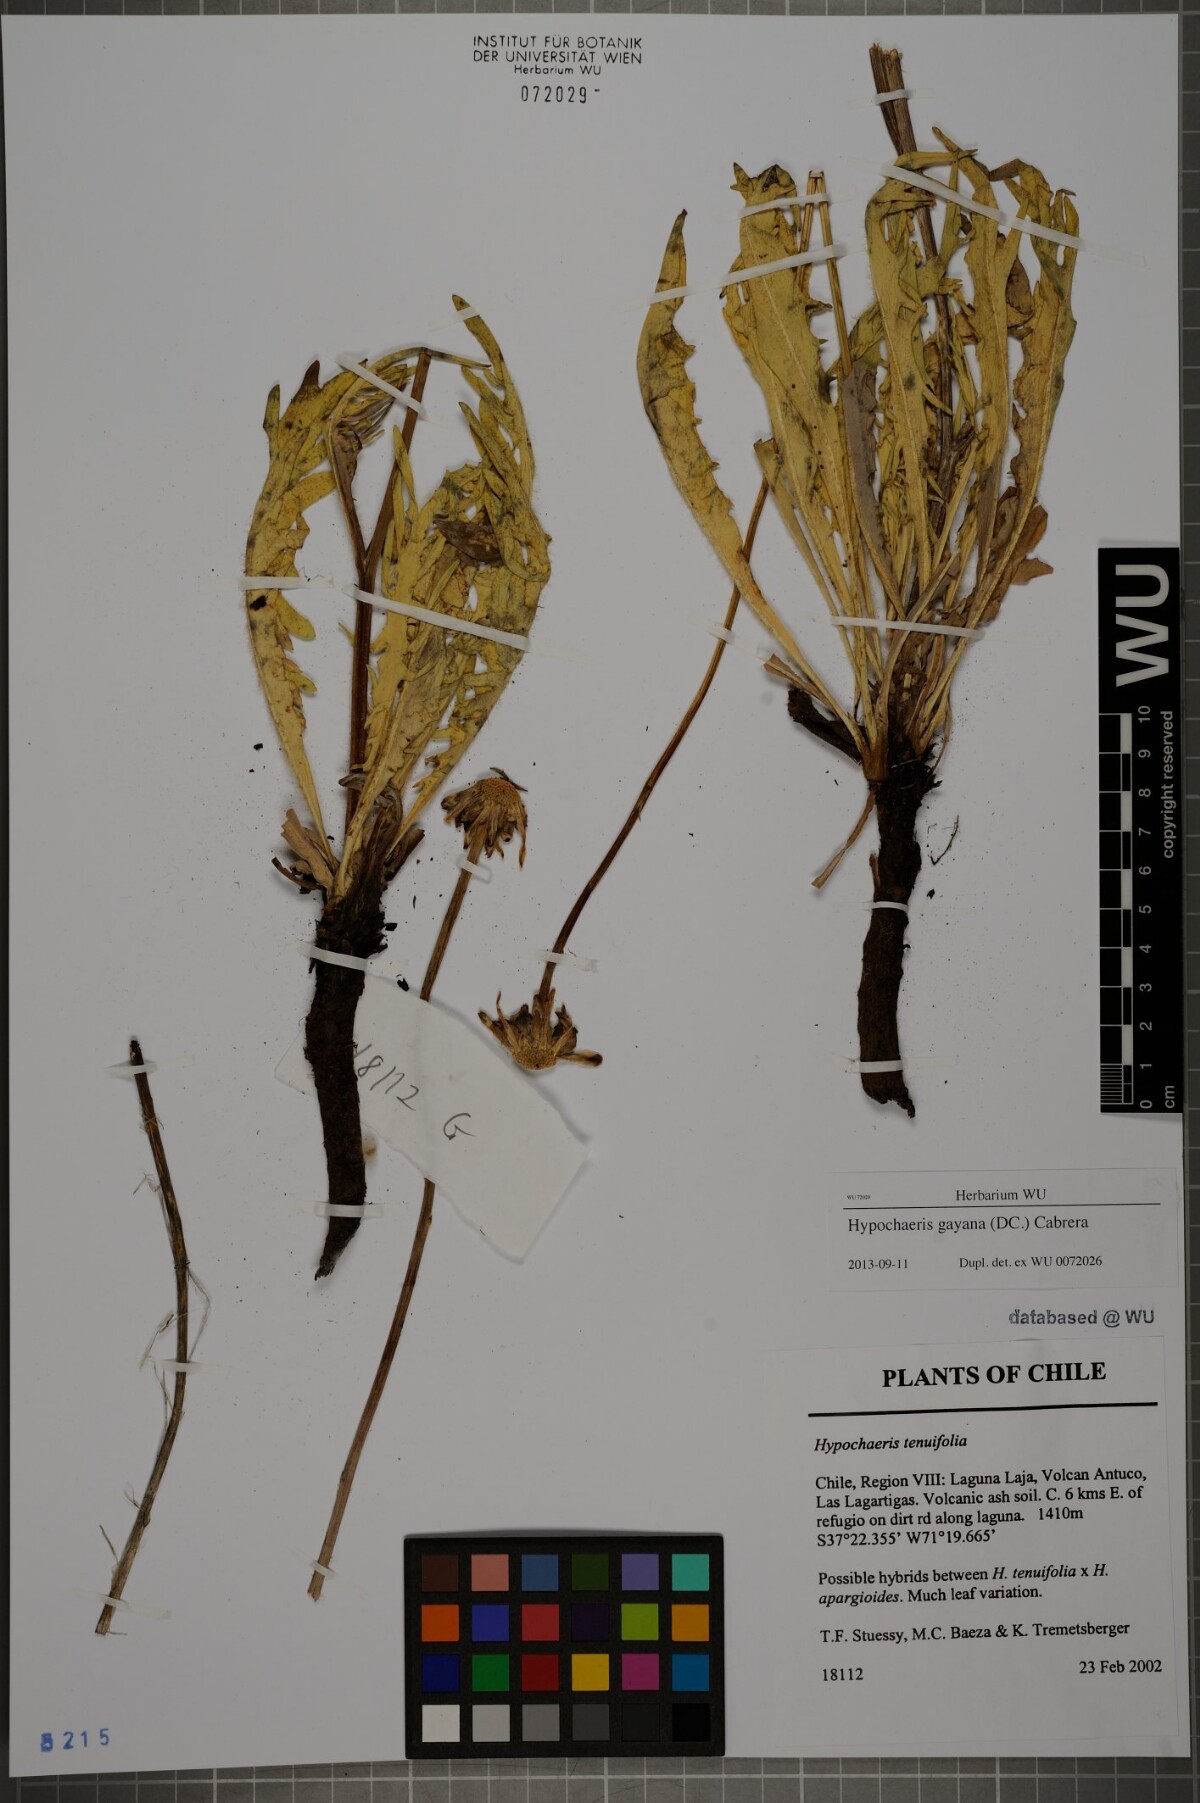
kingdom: Plantae
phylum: Tracheophyta
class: Magnoliopsida
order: Asterales
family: Asteraceae
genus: Hypochaeris
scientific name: Hypochaeris melanolepis
